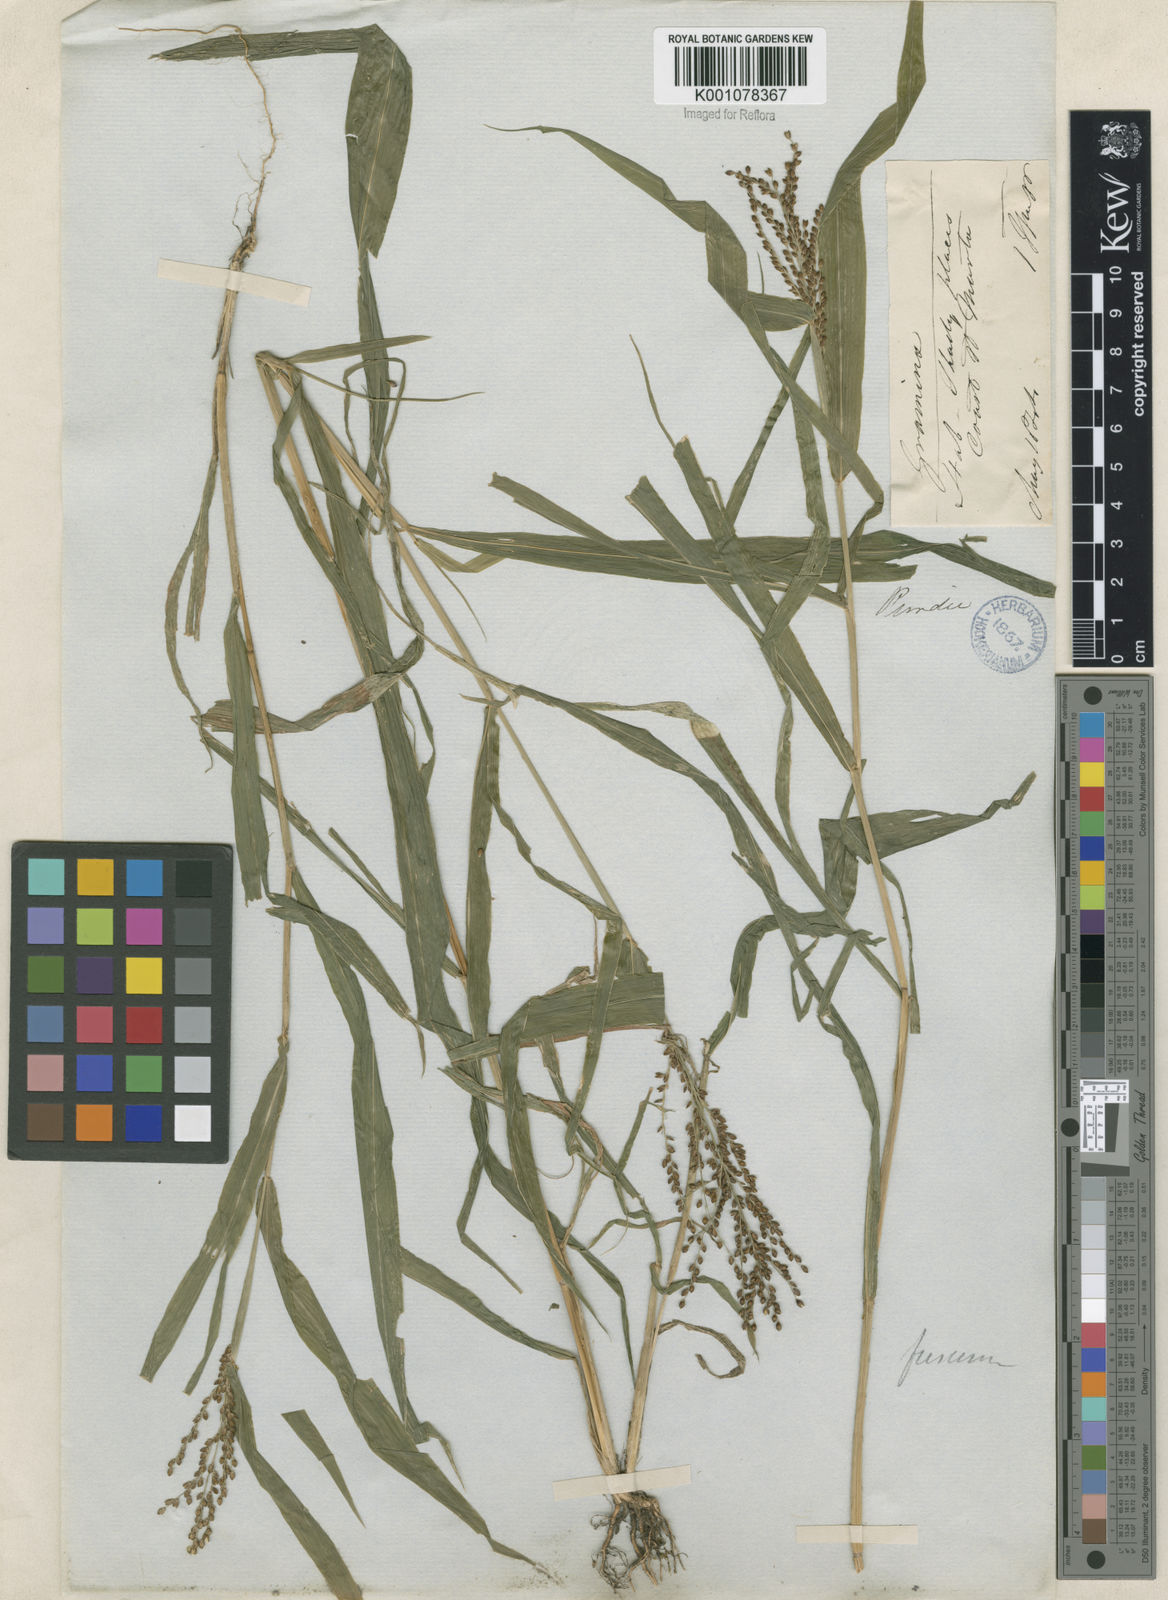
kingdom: Plantae
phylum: Tracheophyta
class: Liliopsida
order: Poales
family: Poaceae
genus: Urochloa
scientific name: Urochloa fusca
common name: Browntop signal grass
